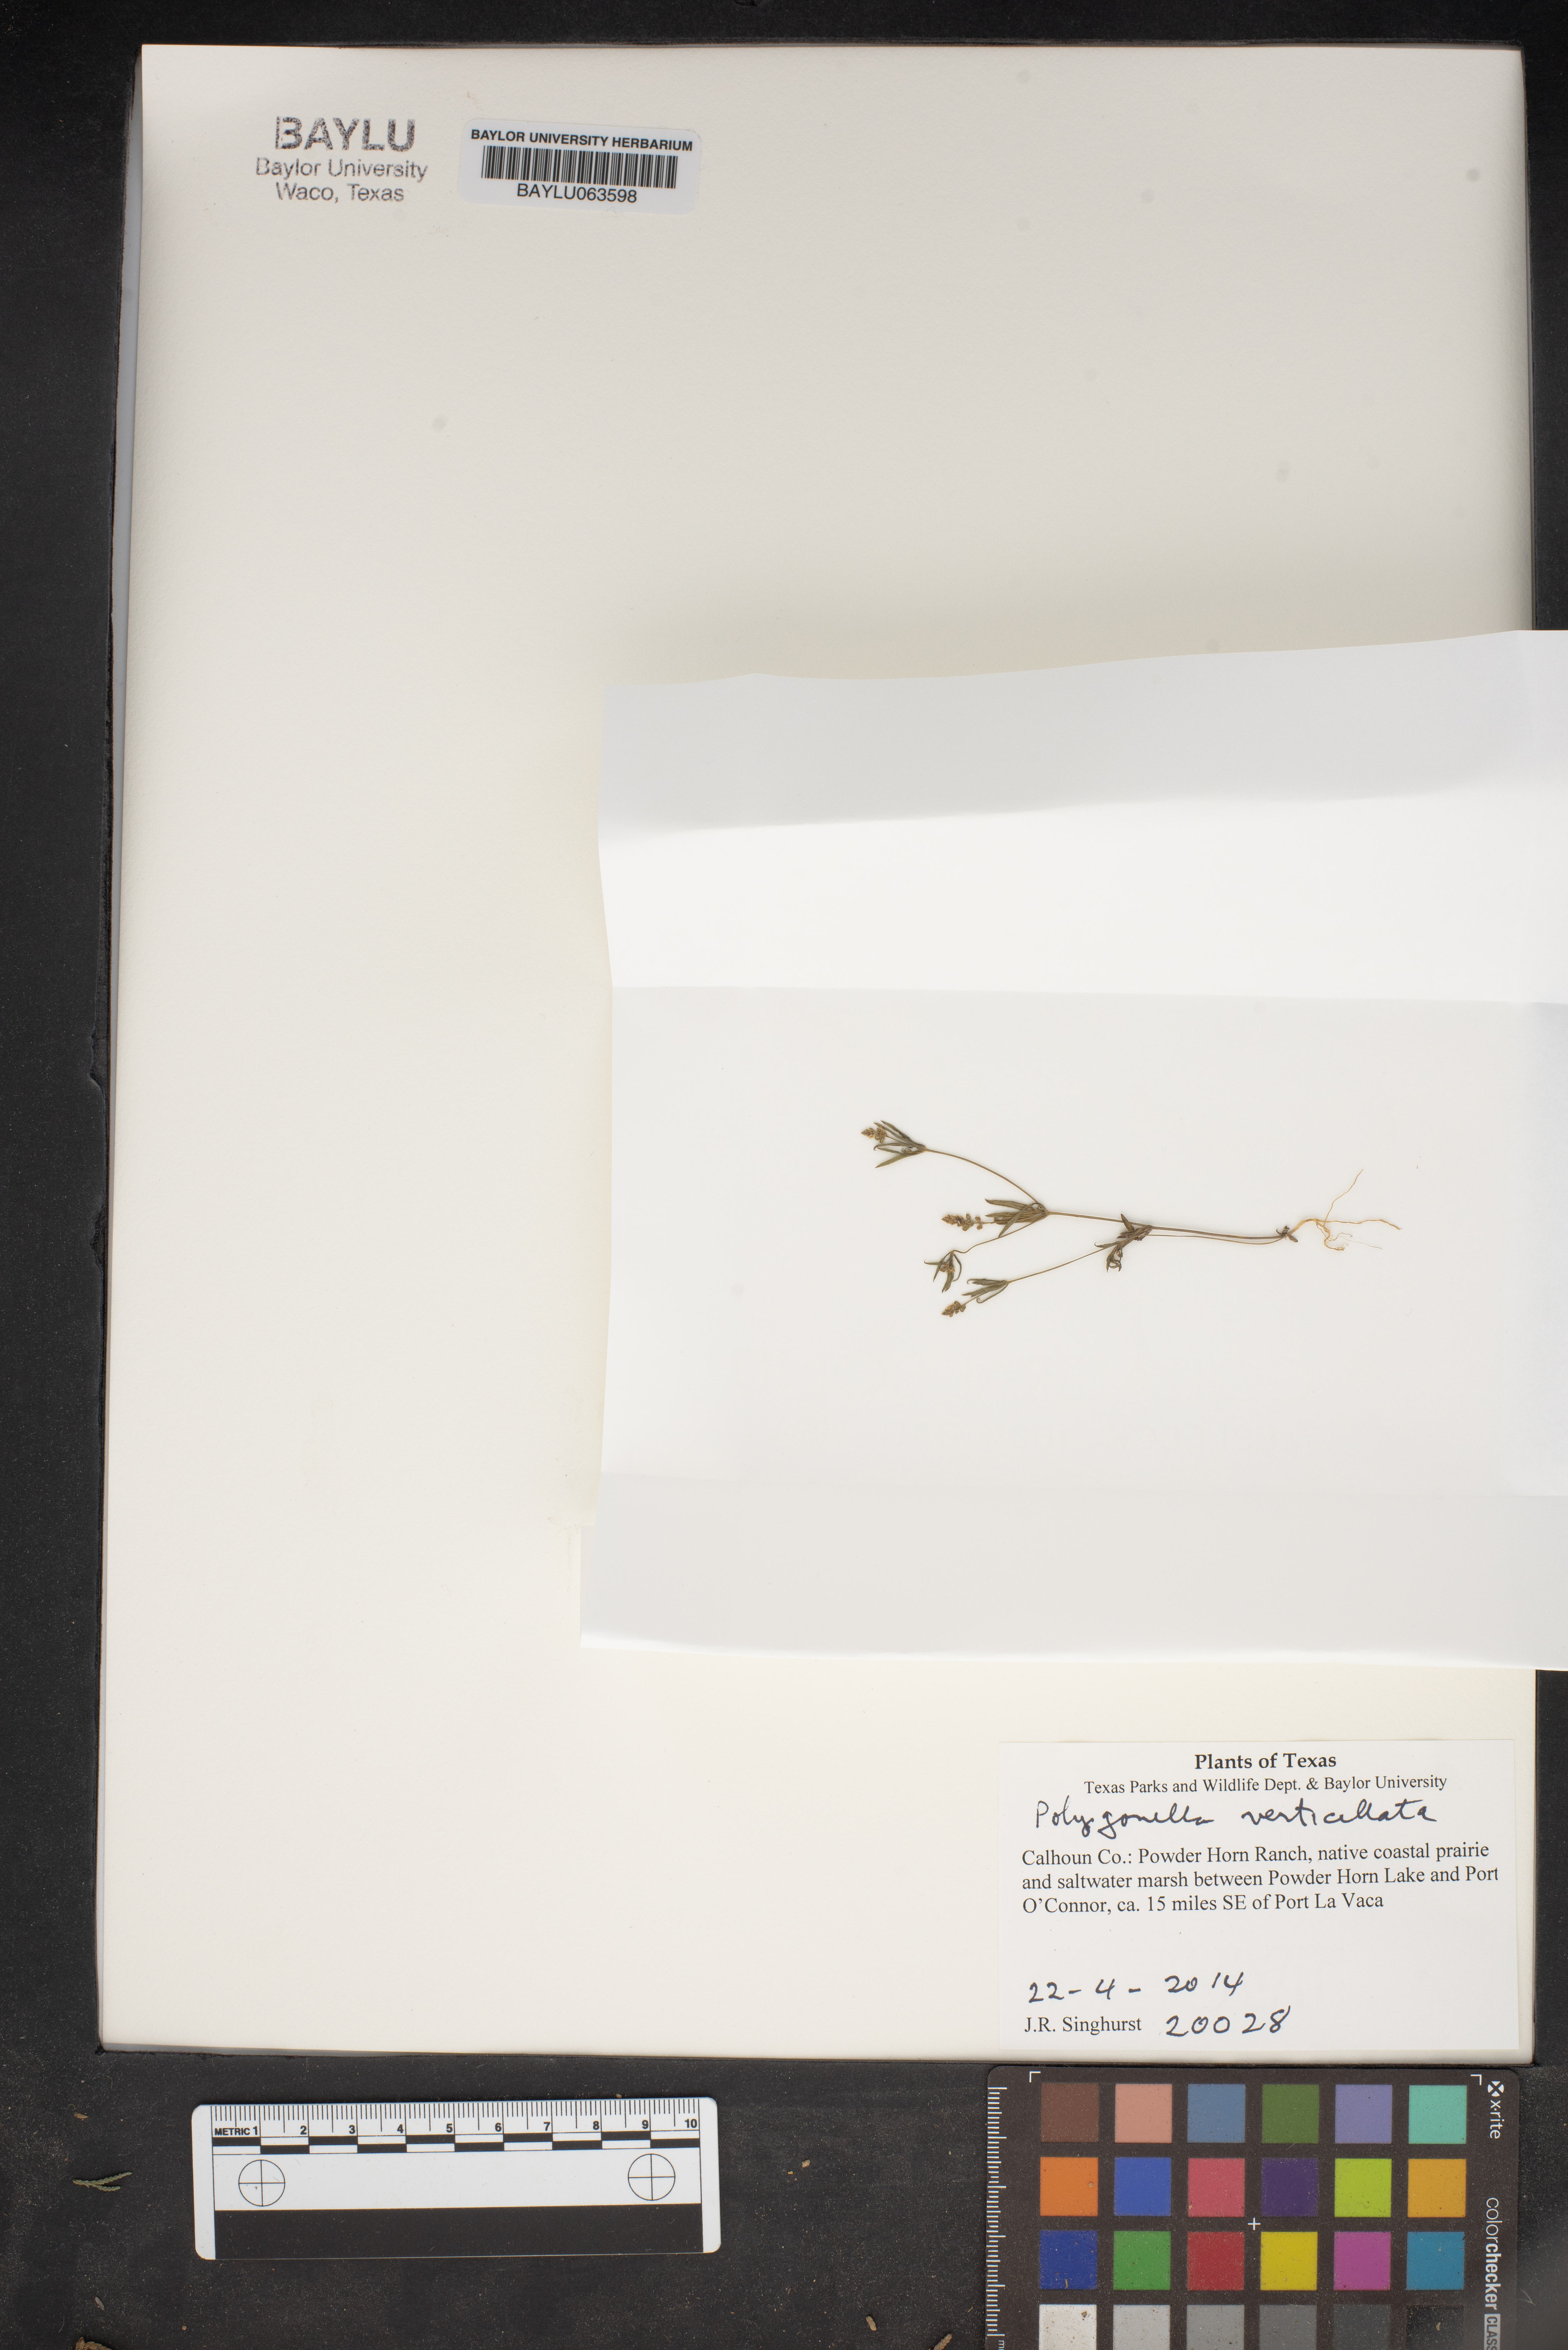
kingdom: Plantae
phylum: Tracheophyta
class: Magnoliopsida
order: Caryophyllales
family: Polygonaceae
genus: Polygonella
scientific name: Polygonella
